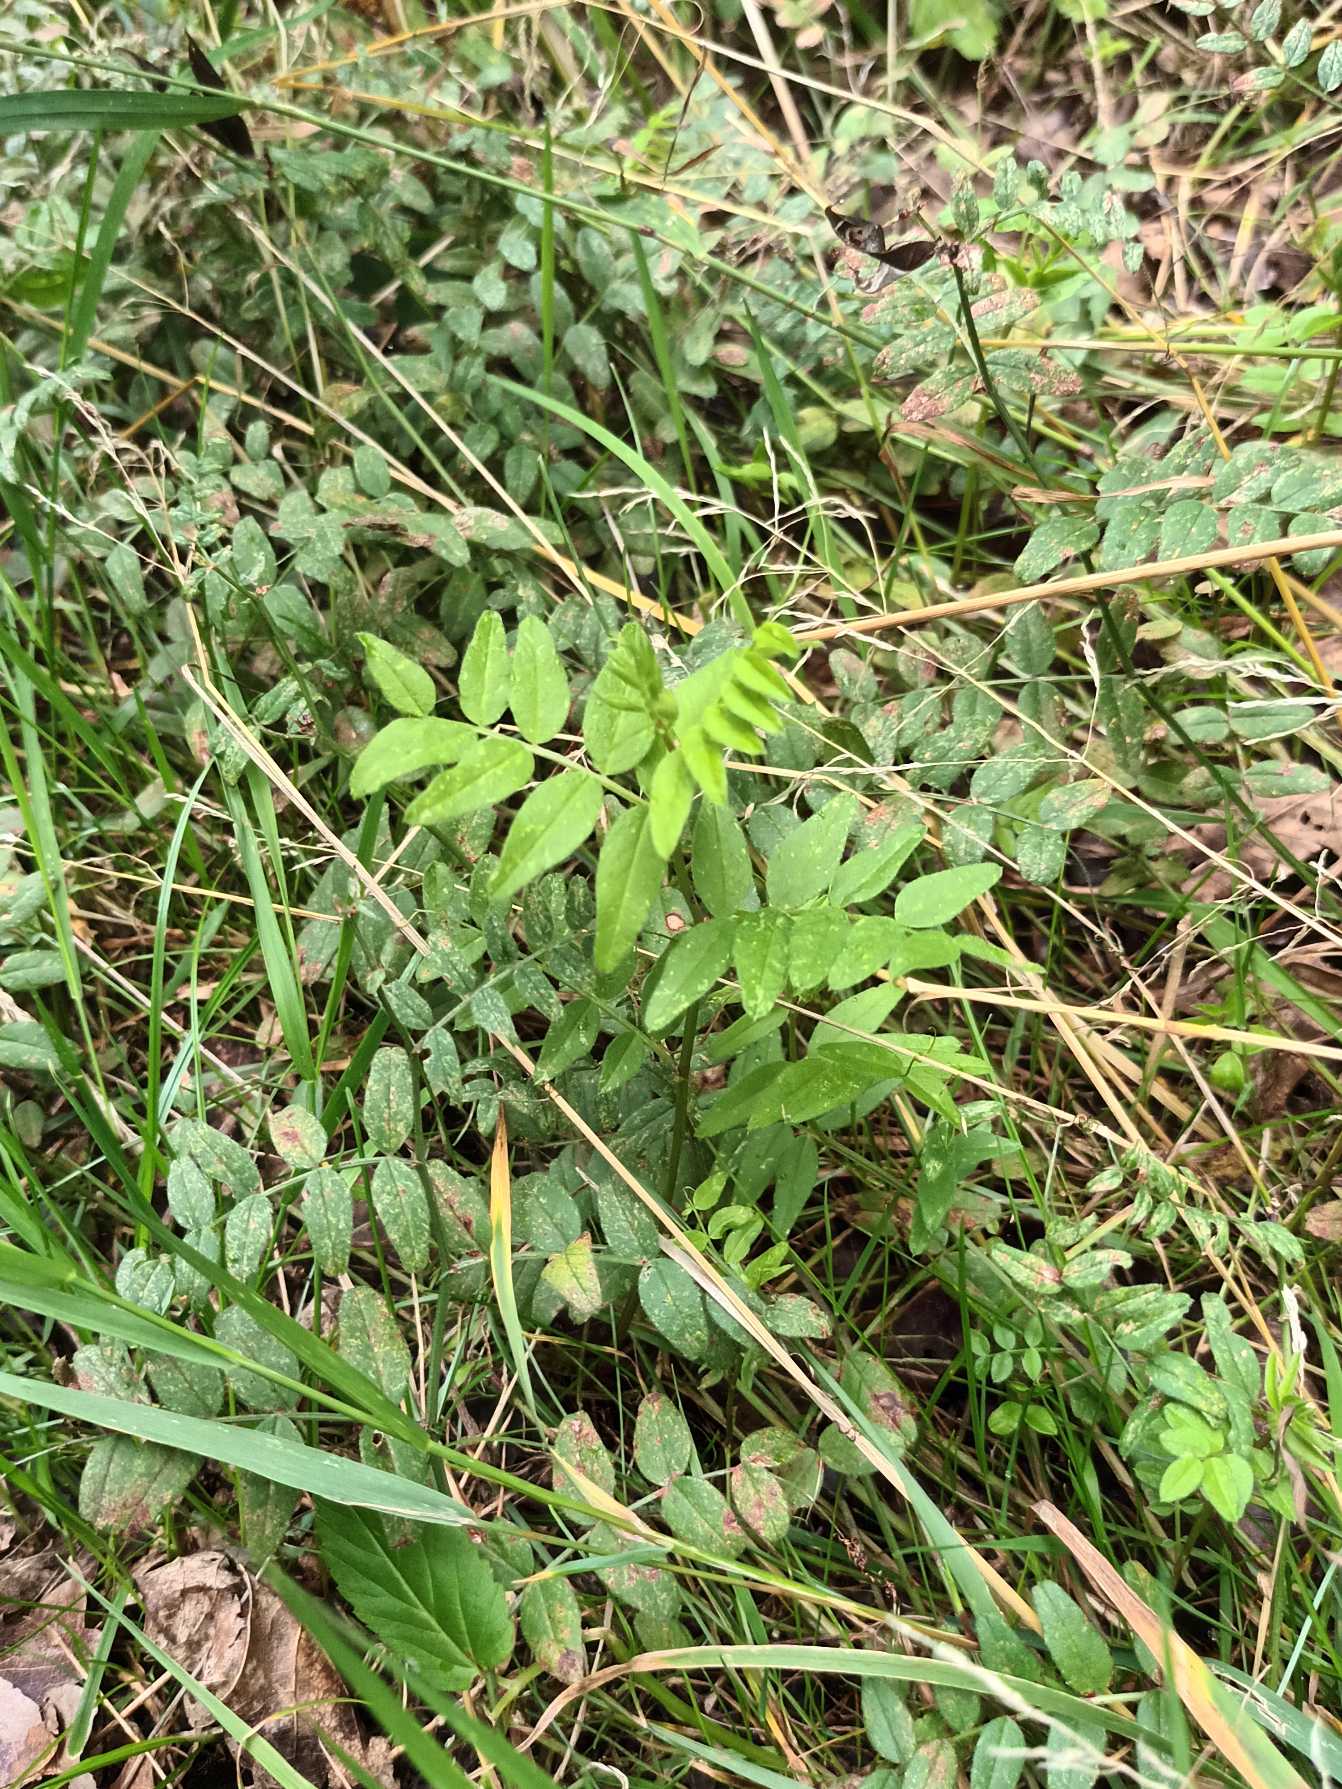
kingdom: Plantae
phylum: Tracheophyta
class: Magnoliopsida
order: Fabales
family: Fabaceae
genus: Vicia
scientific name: Vicia sepium
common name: Gærde-vikke
